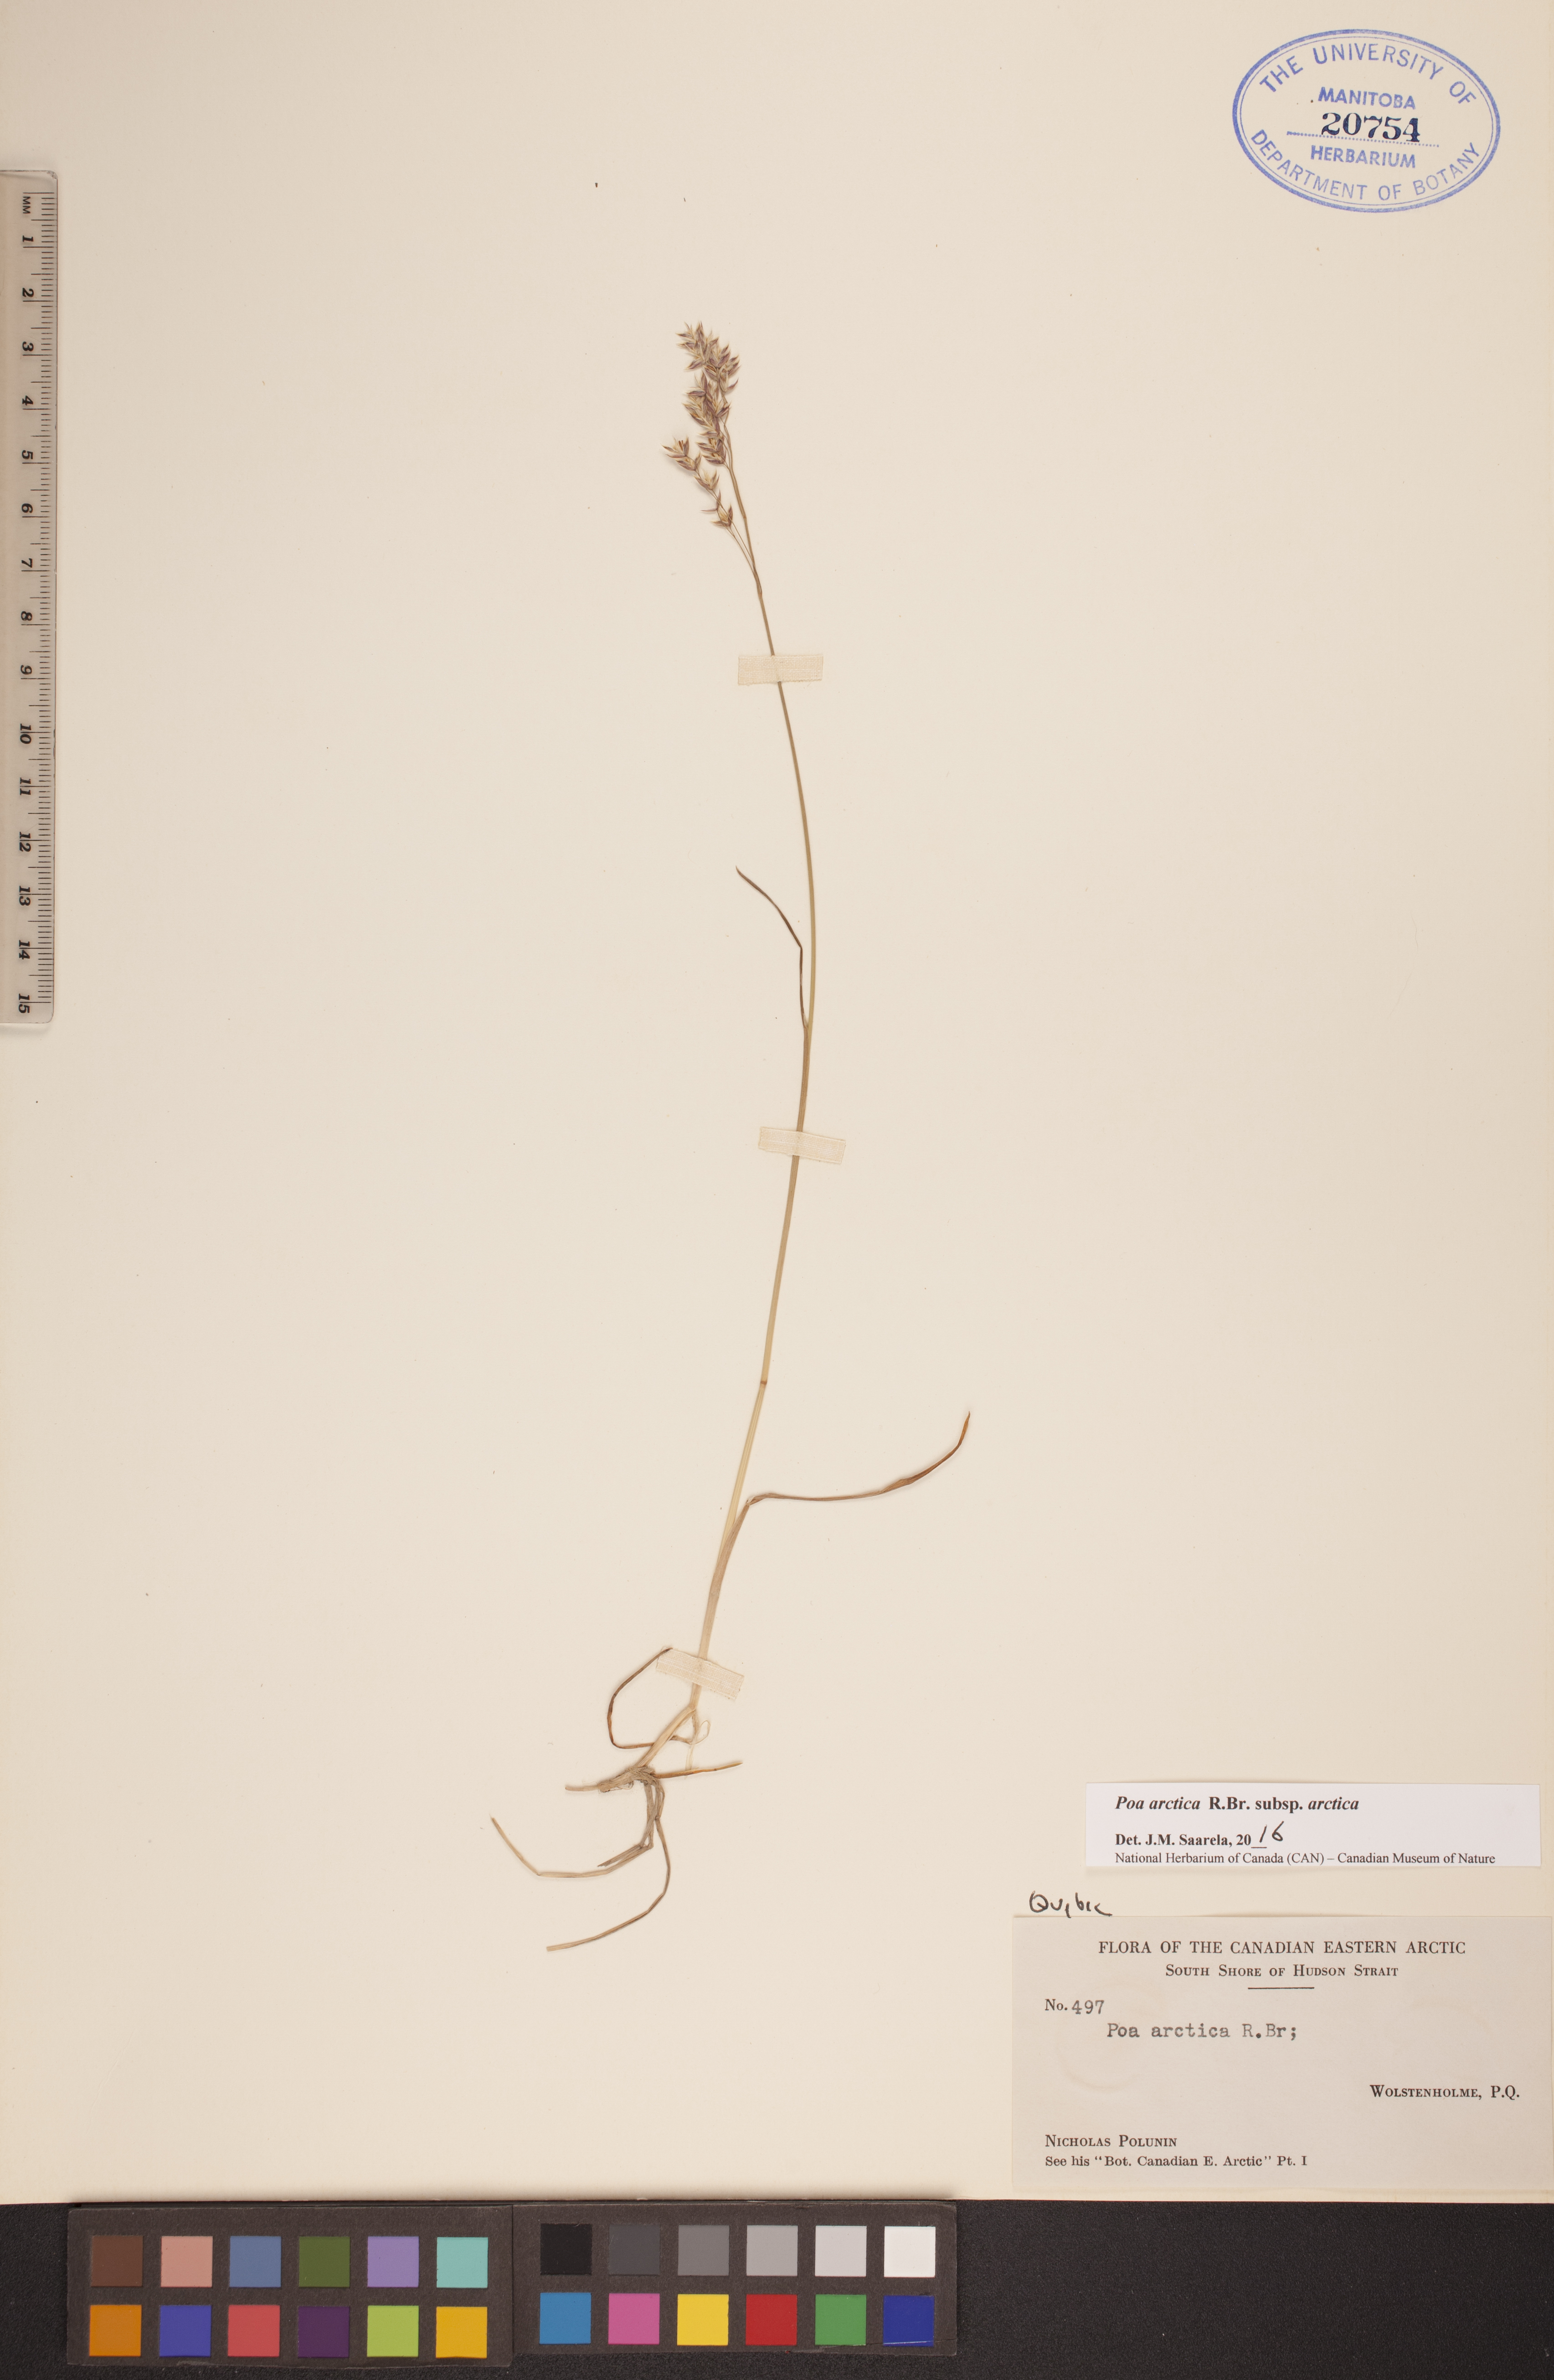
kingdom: Plantae
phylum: Tracheophyta
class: Liliopsida
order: Poales
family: Poaceae
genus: Poa
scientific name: Poa arctica
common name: Arctic bluegrass
